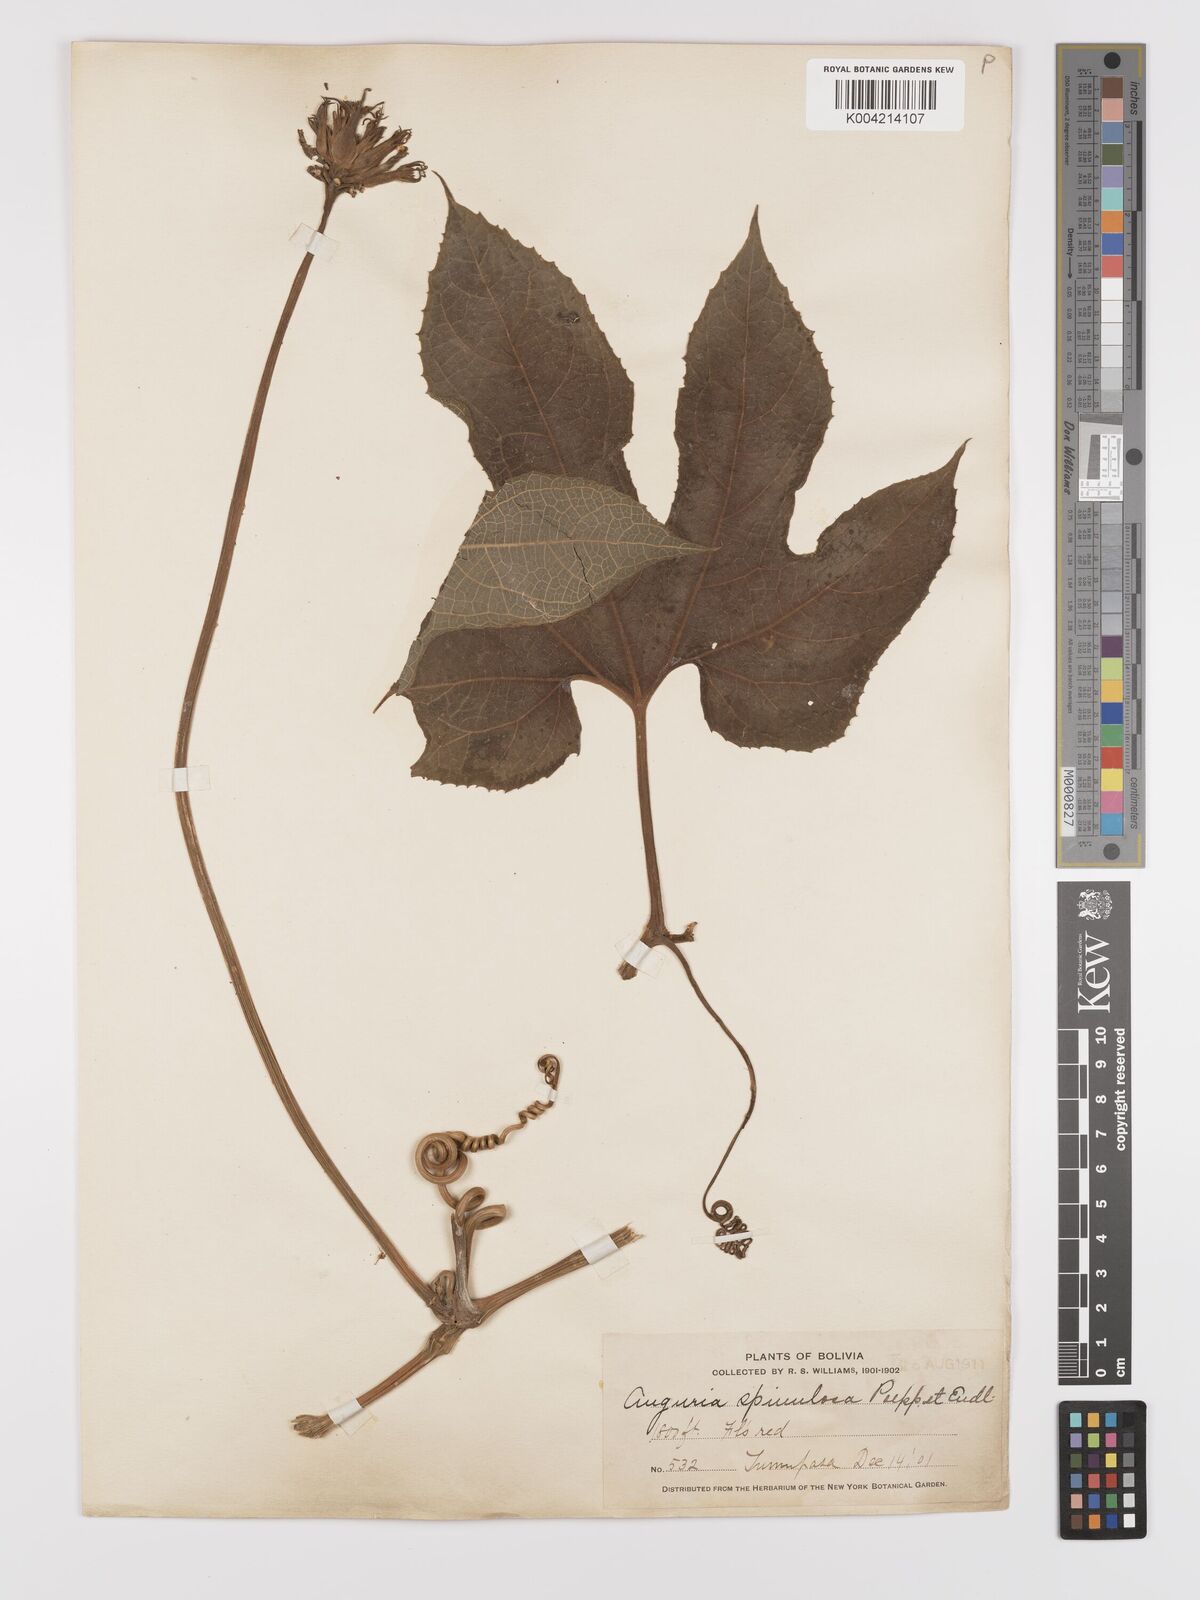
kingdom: Plantae
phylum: Tracheophyta
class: Magnoliopsida
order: Cucurbitales
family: Cucurbitaceae
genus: Gurania
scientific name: Gurania lobata
